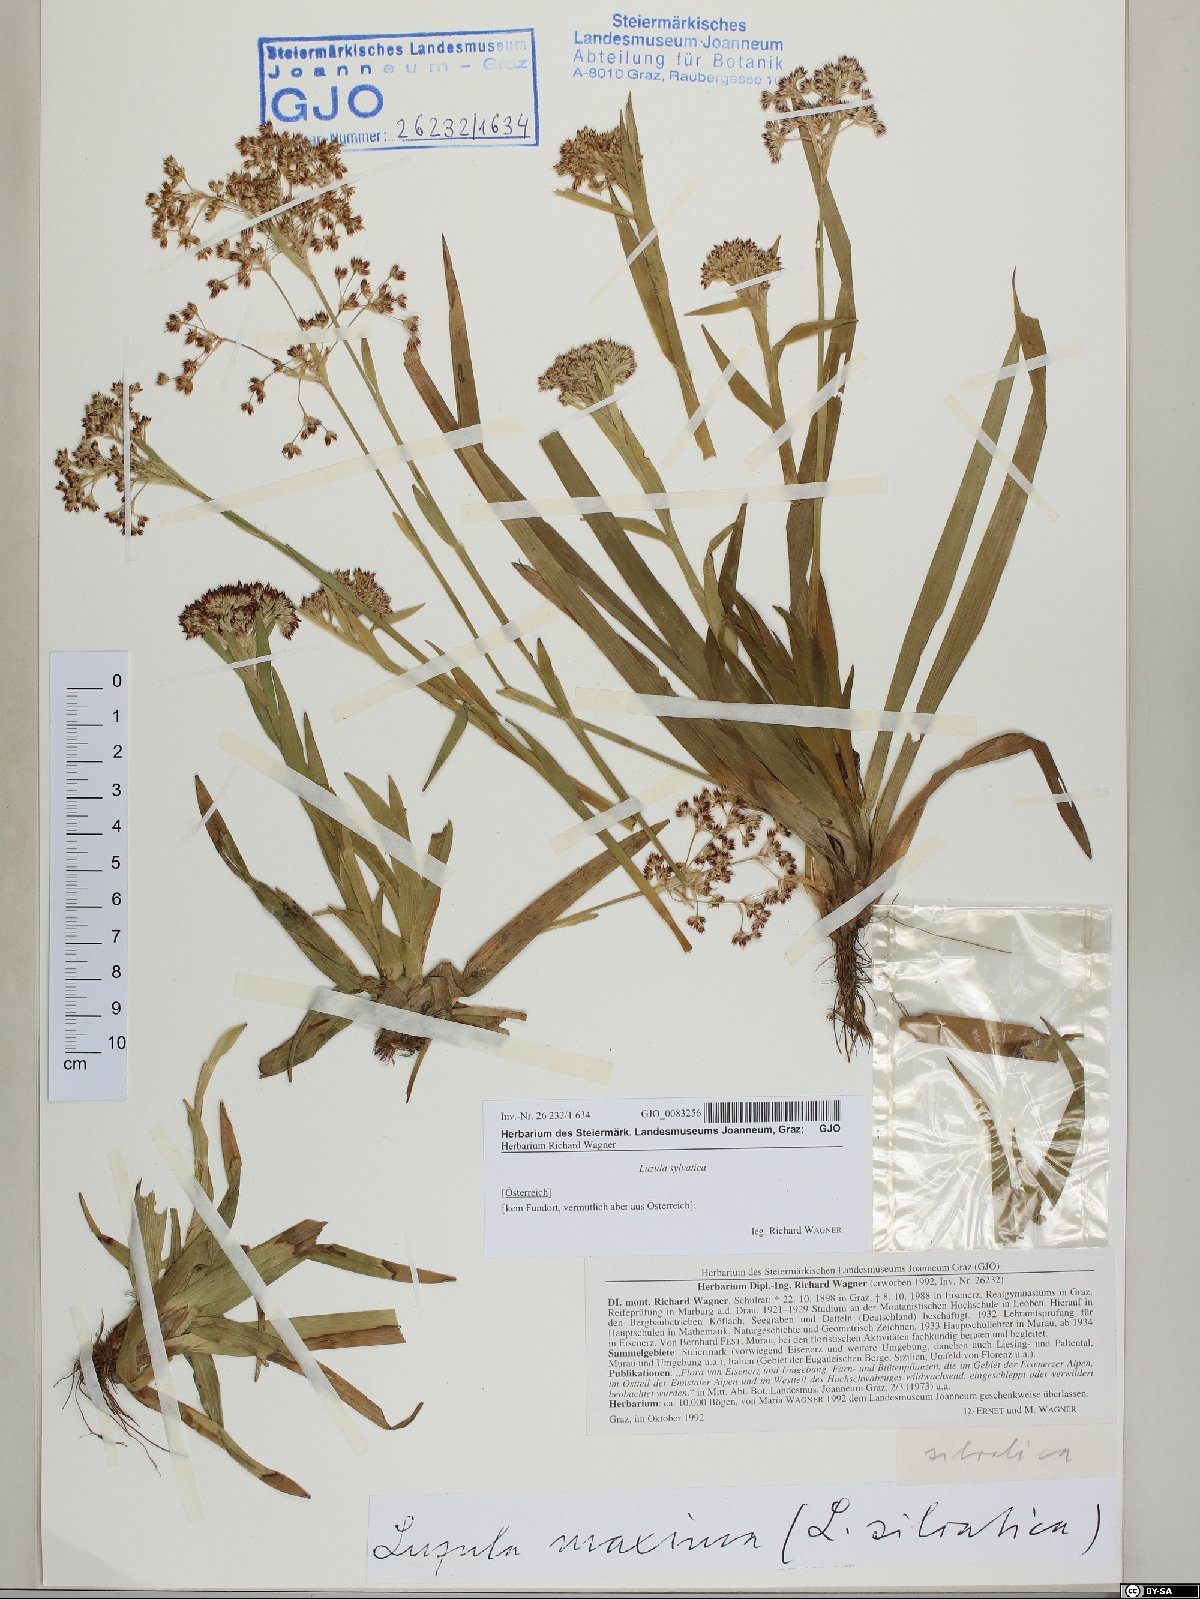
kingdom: Plantae
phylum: Tracheophyta
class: Liliopsida
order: Poales
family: Juncaceae
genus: Luzula
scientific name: Luzula sylvatica
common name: Great wood-rush
